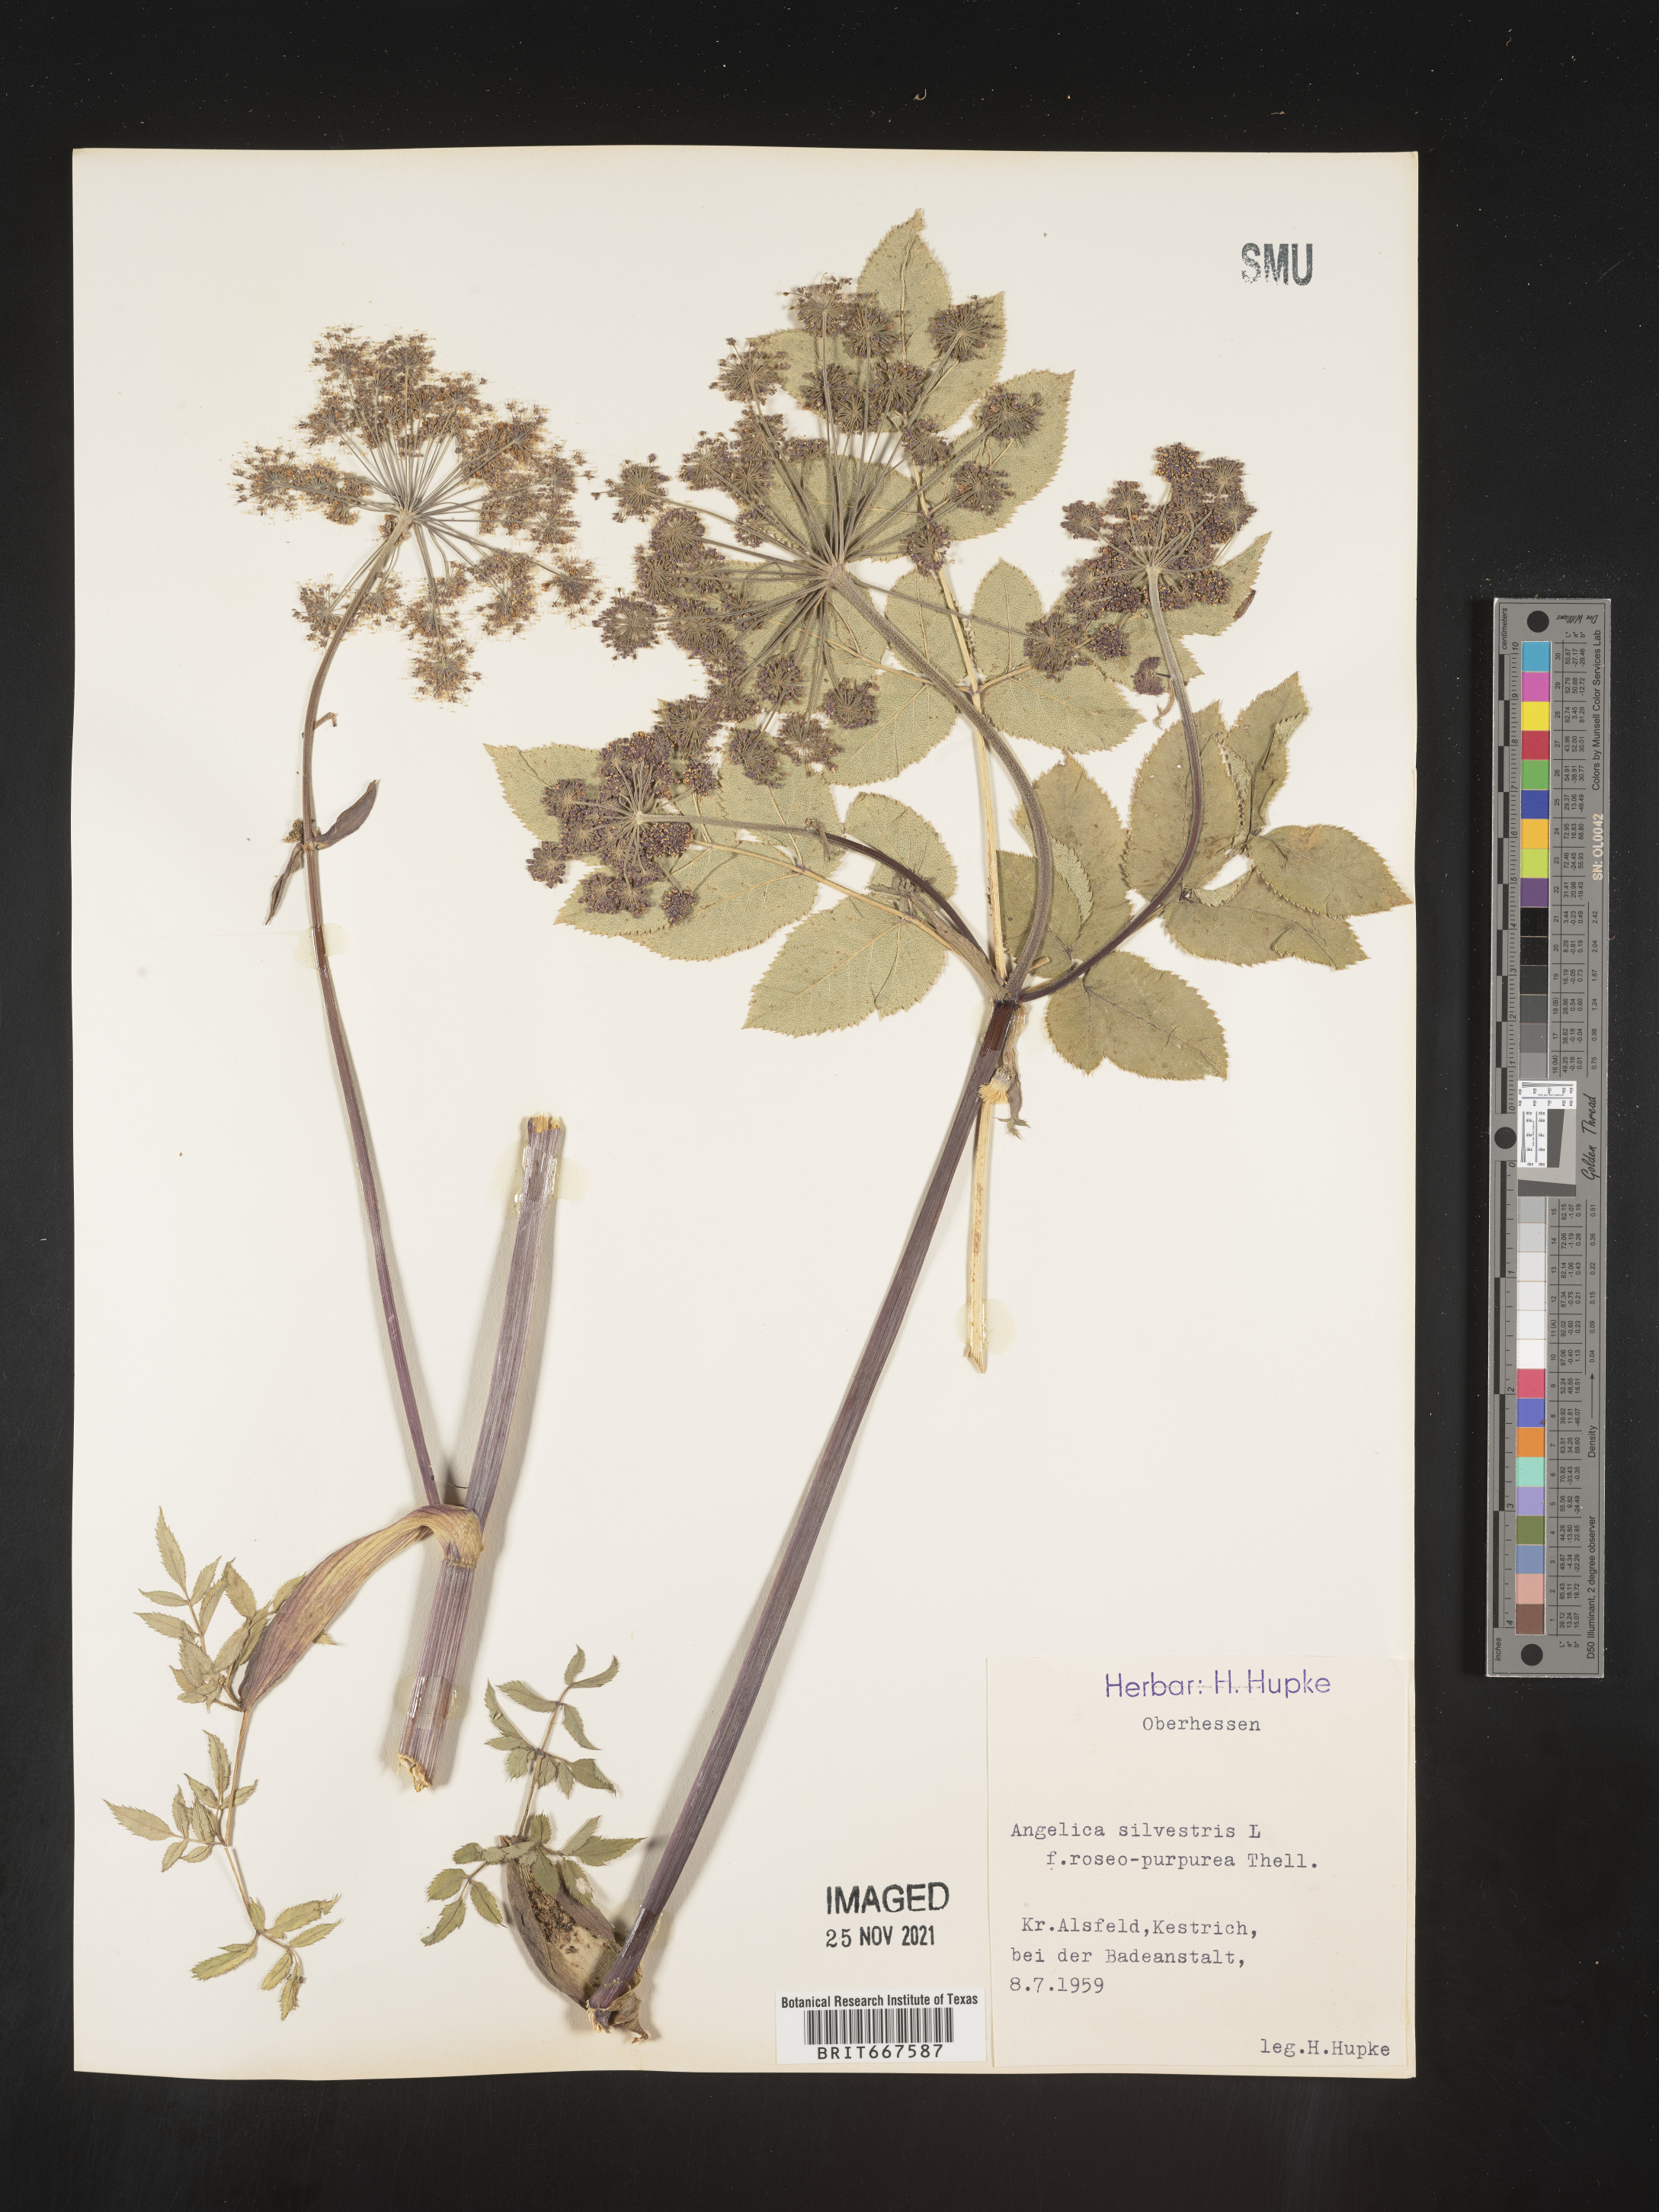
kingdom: Plantae
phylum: Tracheophyta
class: Magnoliopsida
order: Apiales
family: Apiaceae
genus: Angelica
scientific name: Angelica
